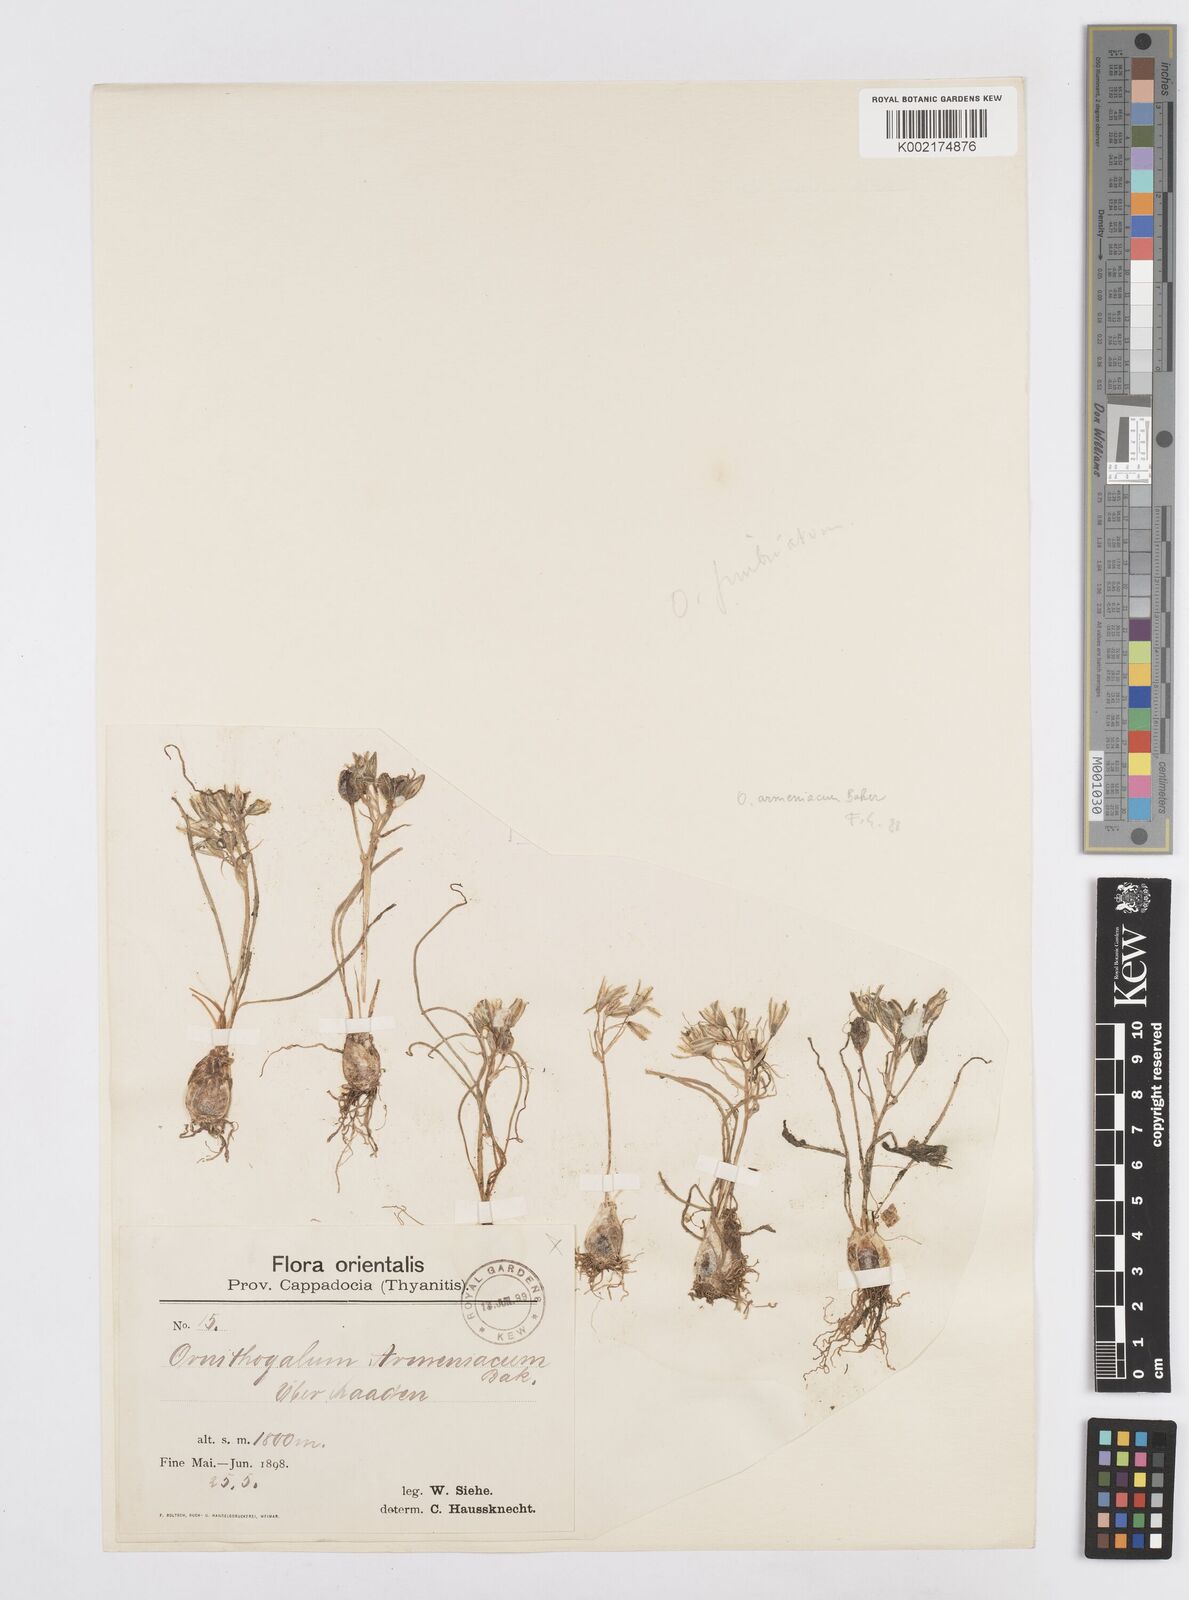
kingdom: Plantae
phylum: Tracheophyta
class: Liliopsida
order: Asparagales
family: Asparagaceae
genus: Ornithogalum
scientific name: Ornithogalum armeniacum
